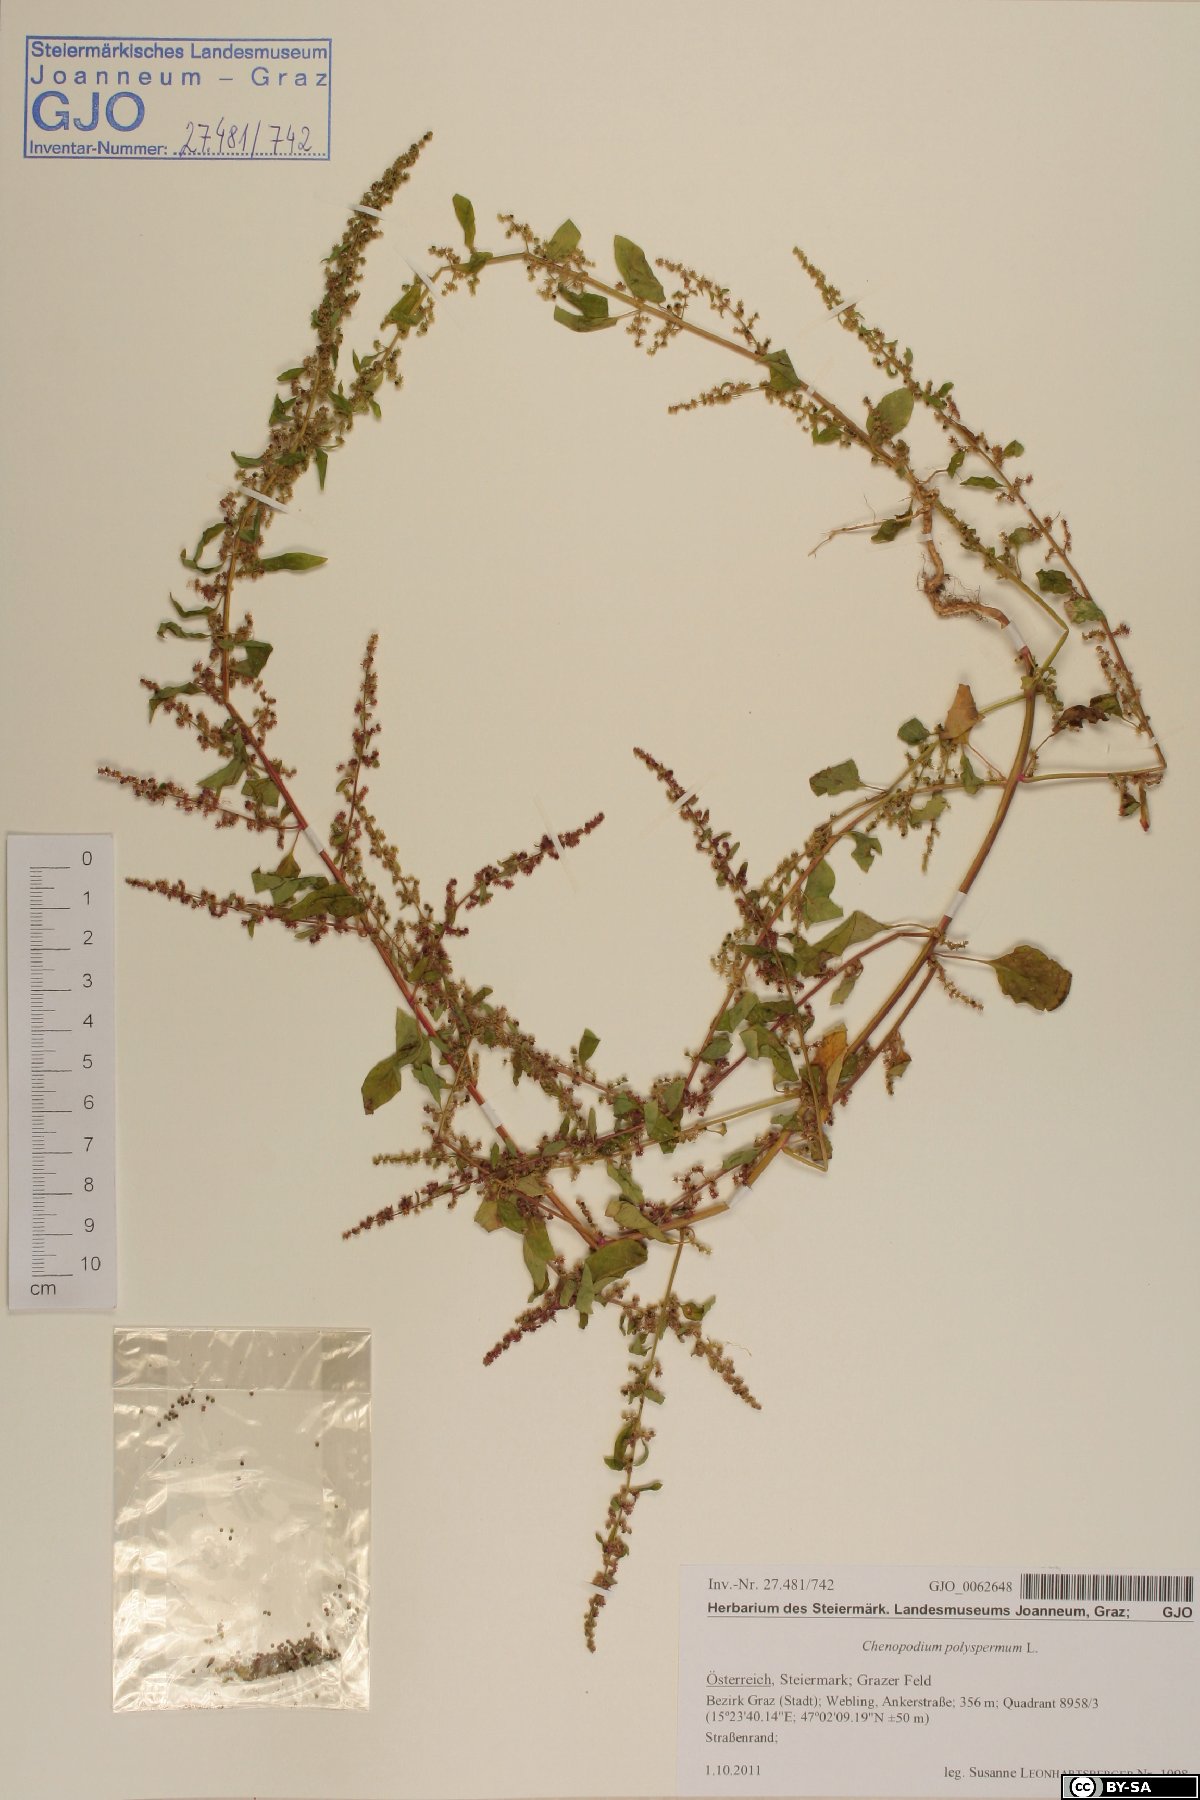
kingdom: Plantae
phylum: Tracheophyta
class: Magnoliopsida
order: Caryophyllales
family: Amaranthaceae
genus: Lipandra
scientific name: Lipandra polysperma
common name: Many-seed goosefoot
